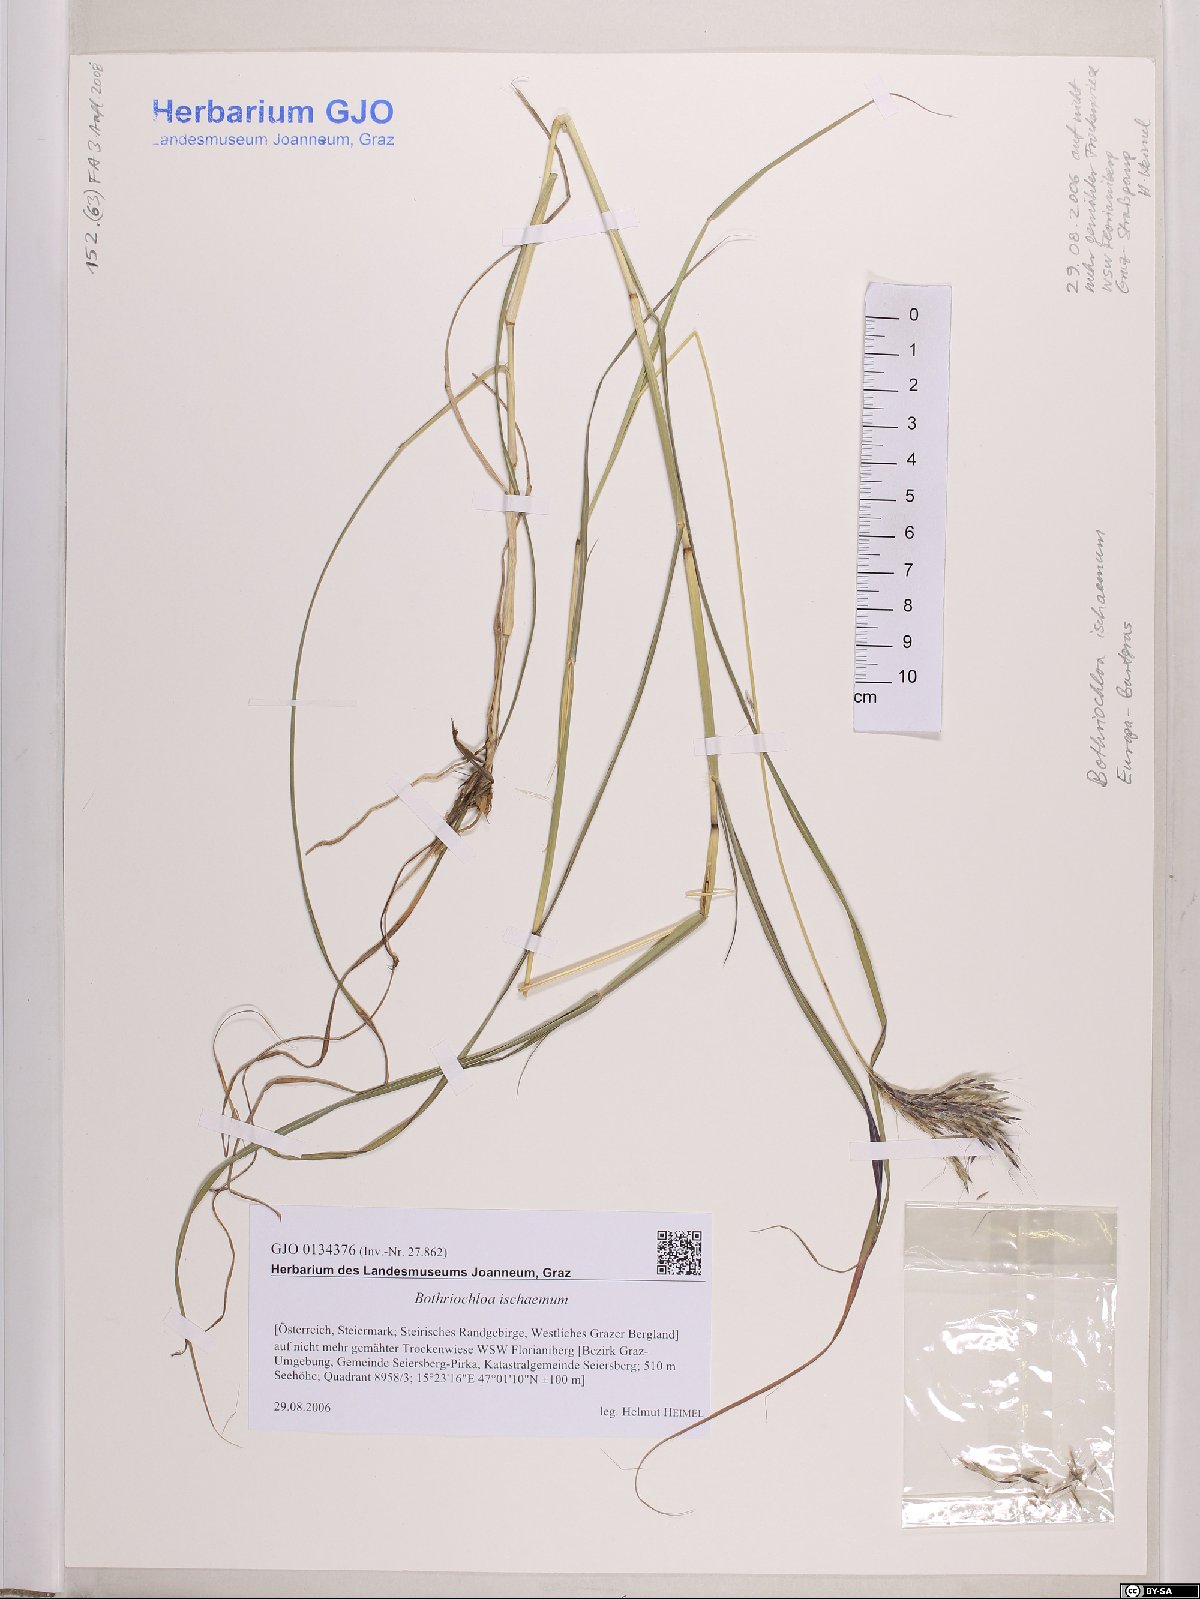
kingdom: Plantae
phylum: Tracheophyta
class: Liliopsida
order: Poales
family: Poaceae
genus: Bothriochloa
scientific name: Bothriochloa ischaemum
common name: Yellow bluestem
